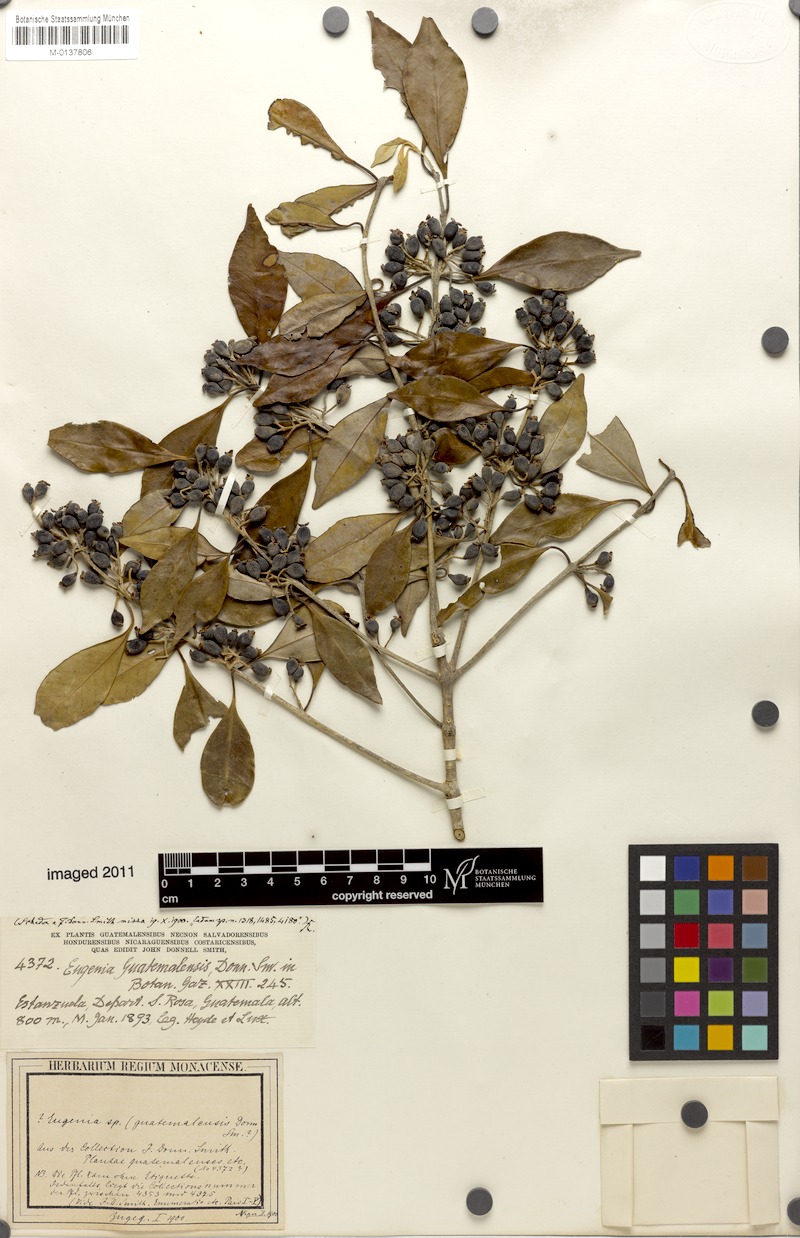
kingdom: Plantae
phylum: Tracheophyta
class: Magnoliopsida
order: Myrtales
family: Myrtaceae
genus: Eugenia
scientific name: Eugenia guatemalensis
